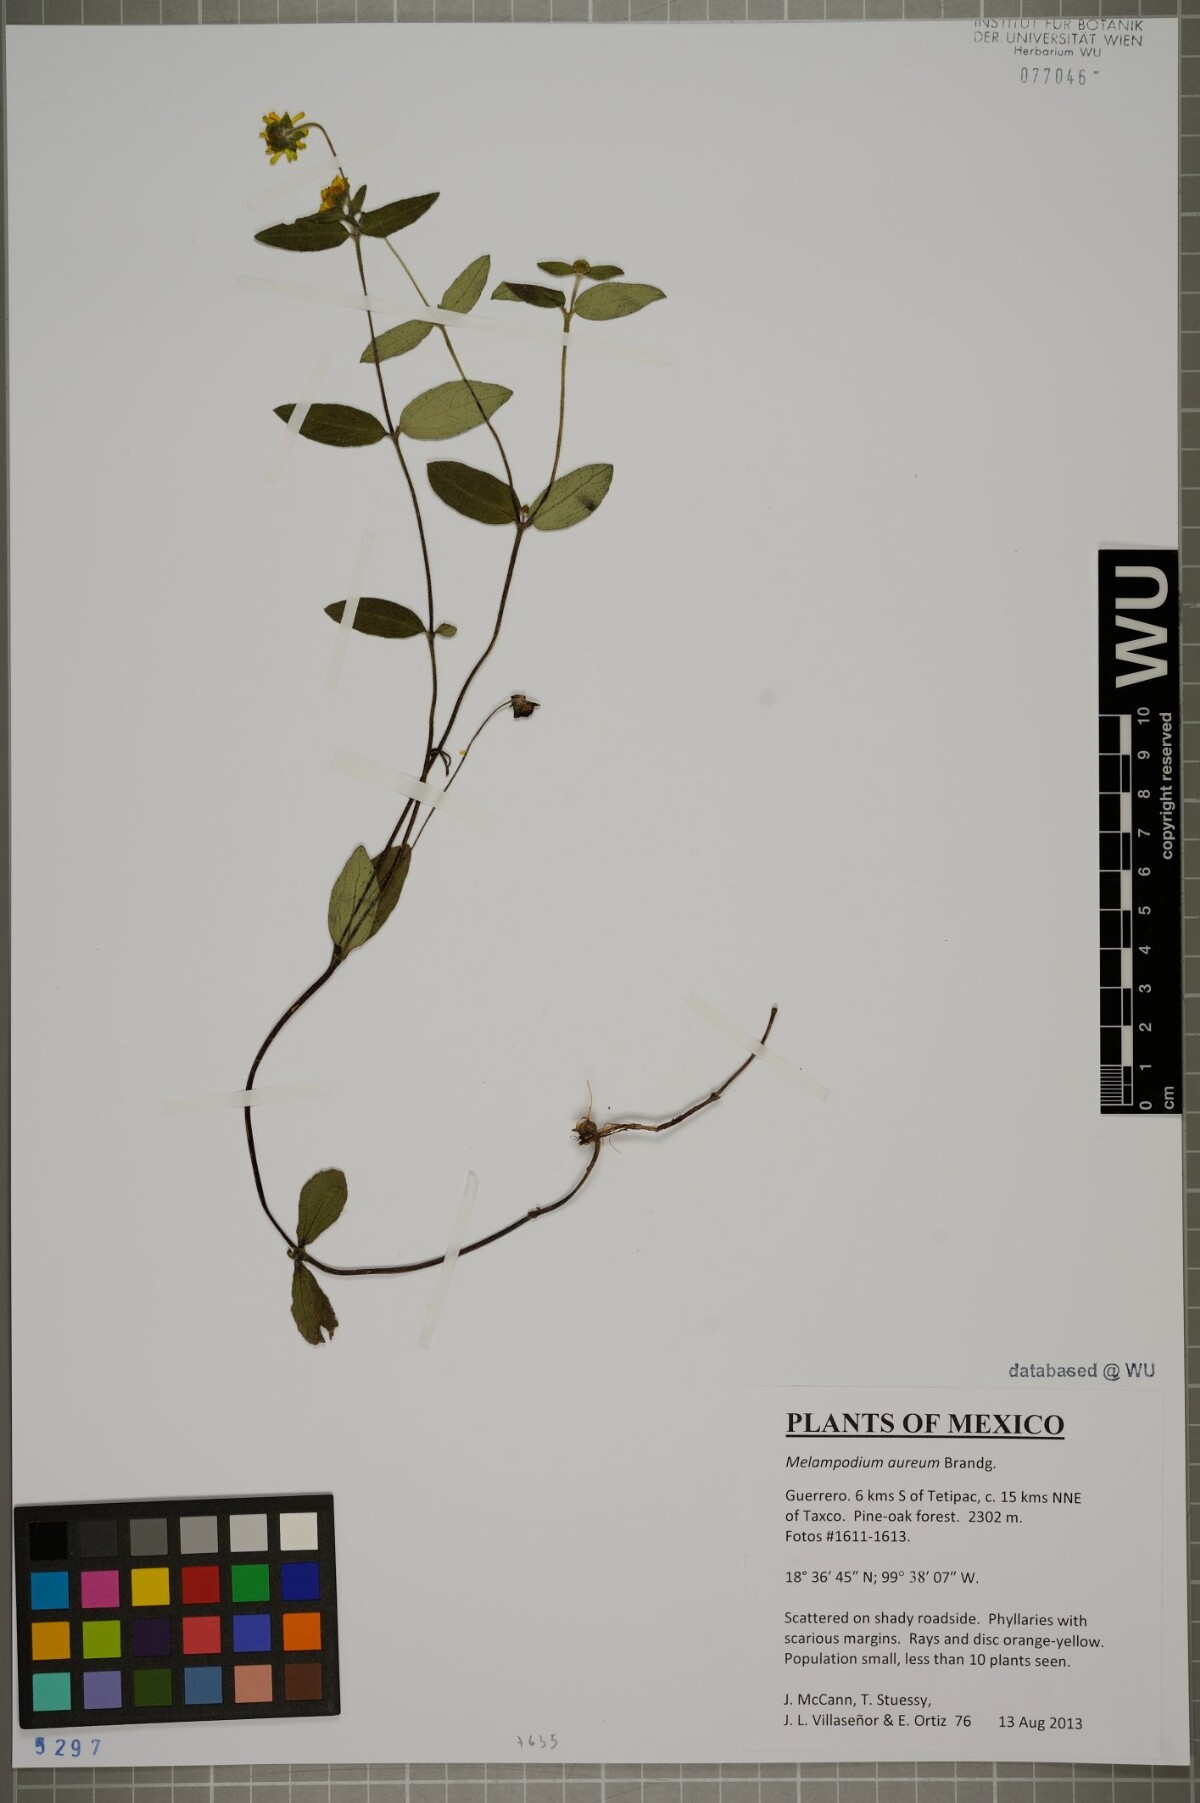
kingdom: Plantae
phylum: Tracheophyta
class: Magnoliopsida
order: Asterales
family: Asteraceae
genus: Melampodium
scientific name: Melampodium aureum
